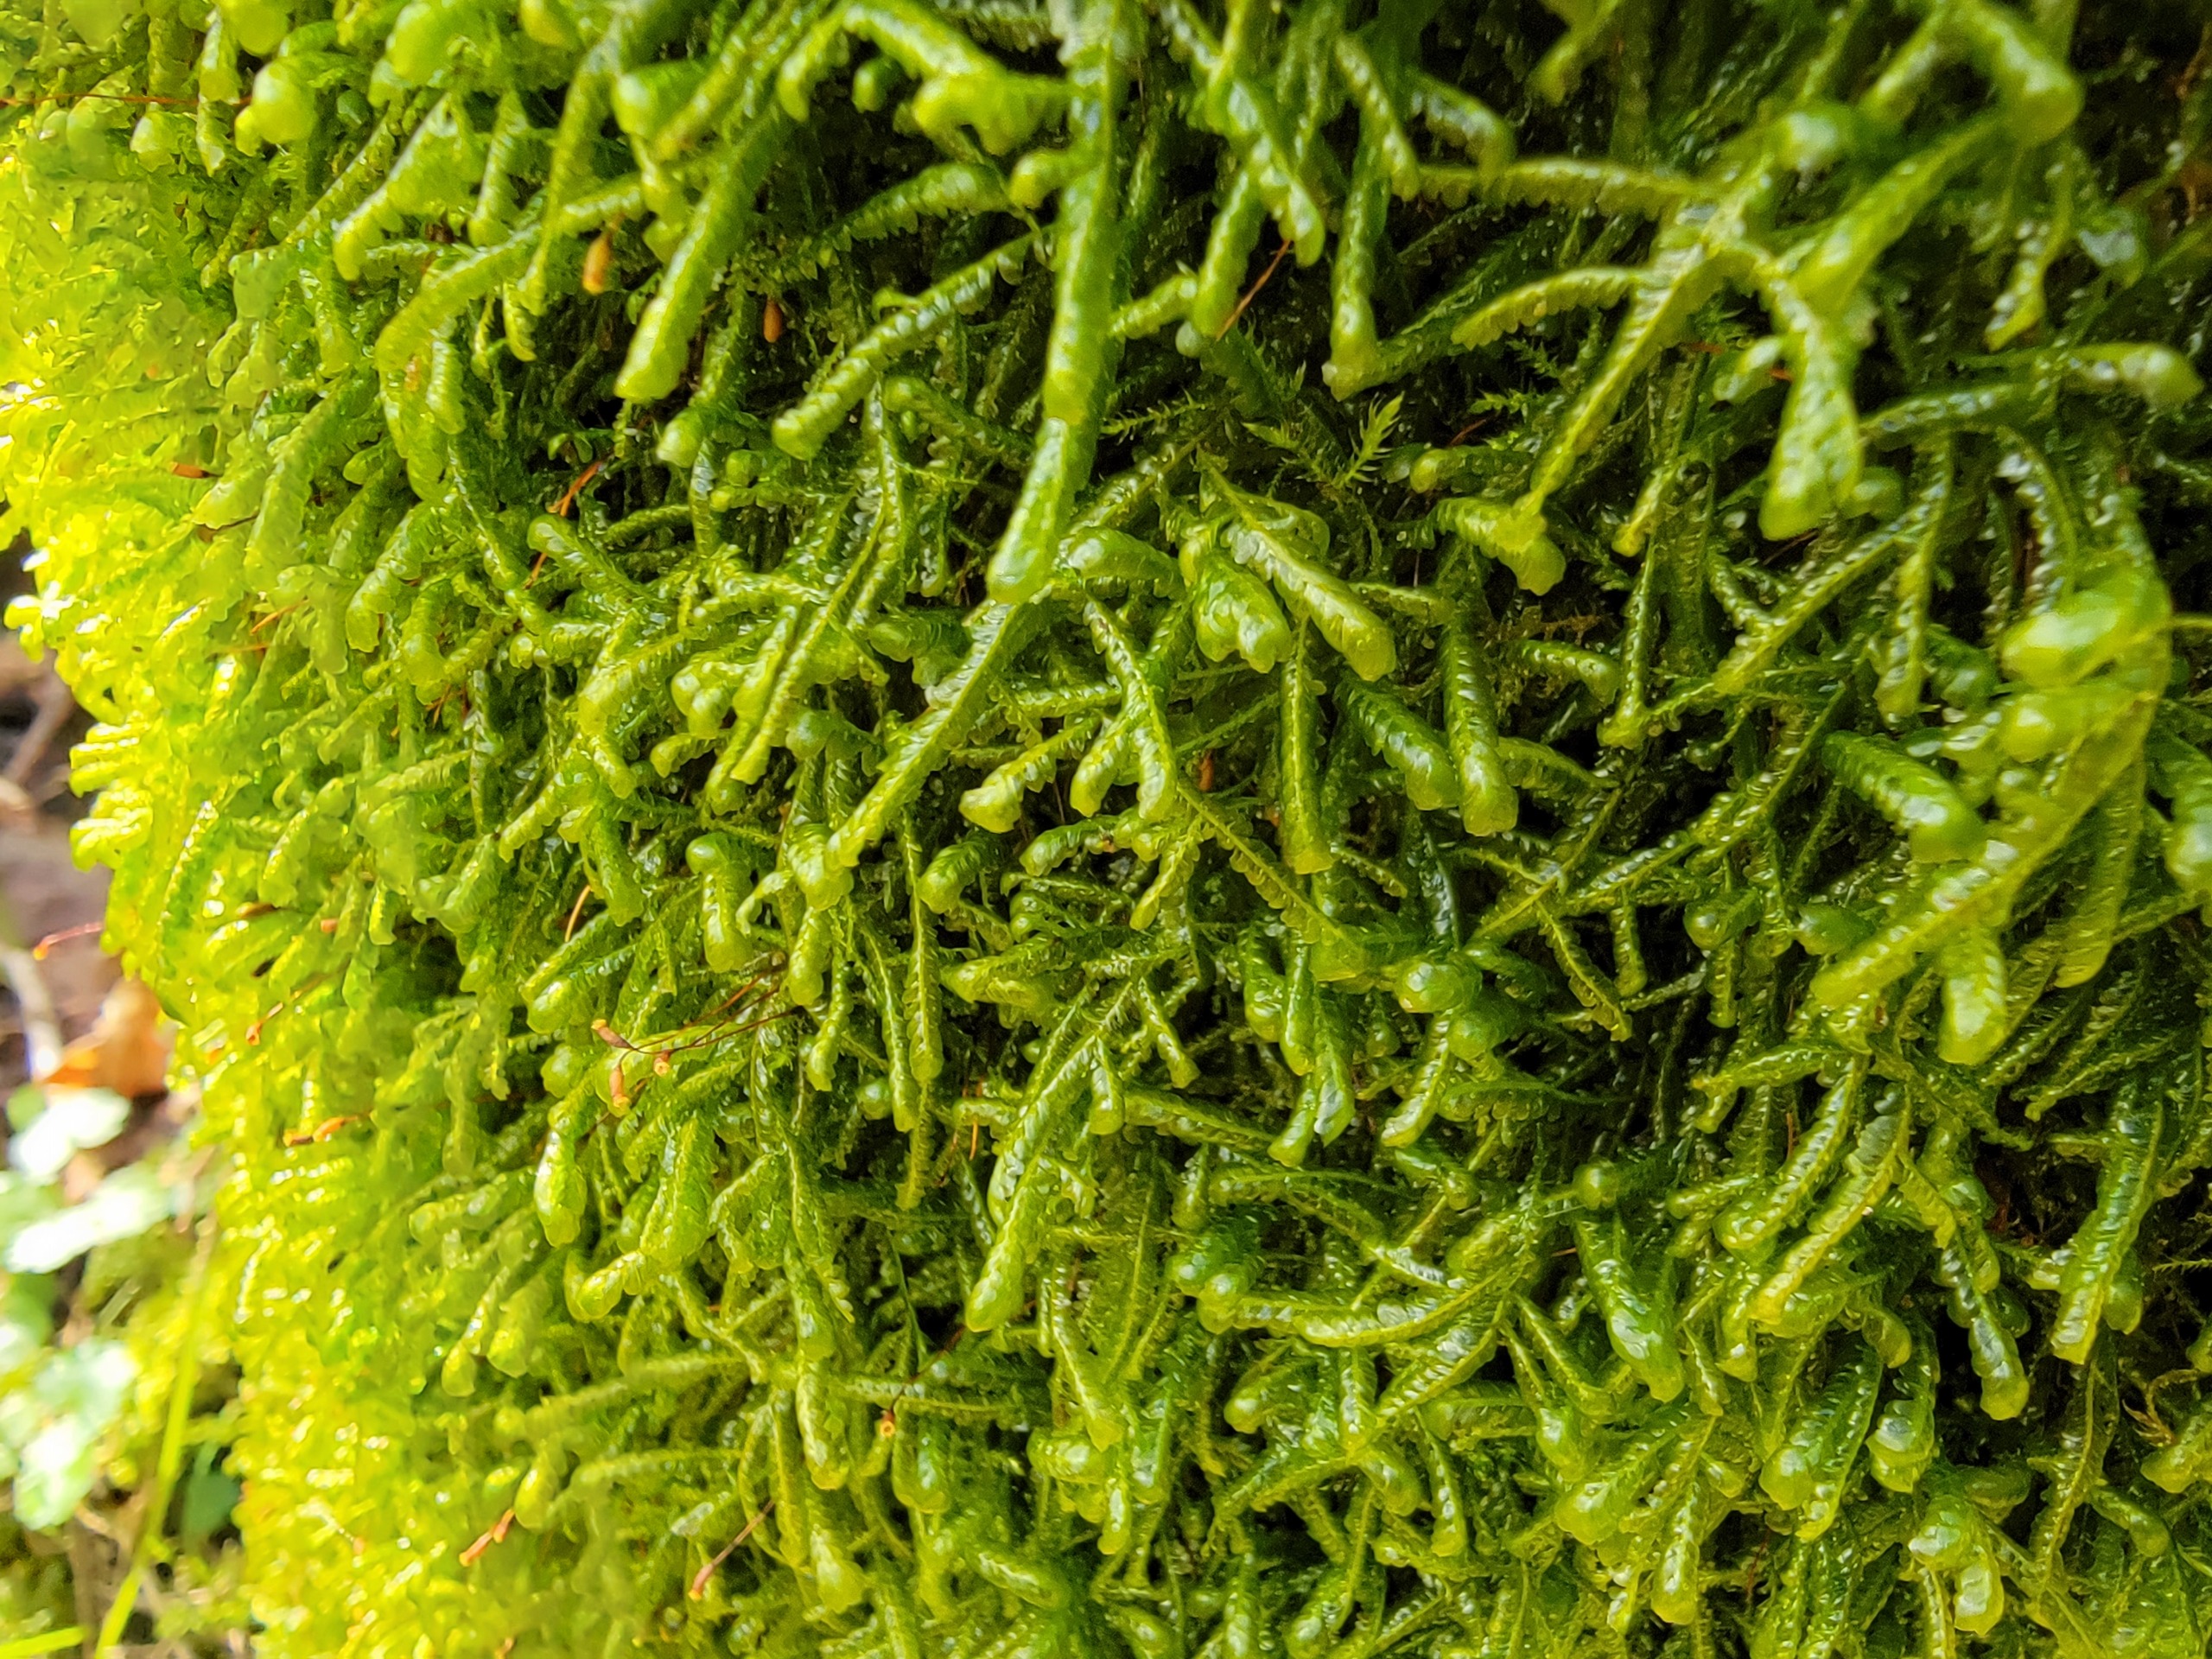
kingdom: Plantae
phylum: Bryophyta
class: Bryopsida
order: Hypnales
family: Neckeraceae
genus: Homalia
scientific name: Homalia trichomanoides
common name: Skov-tungemos
